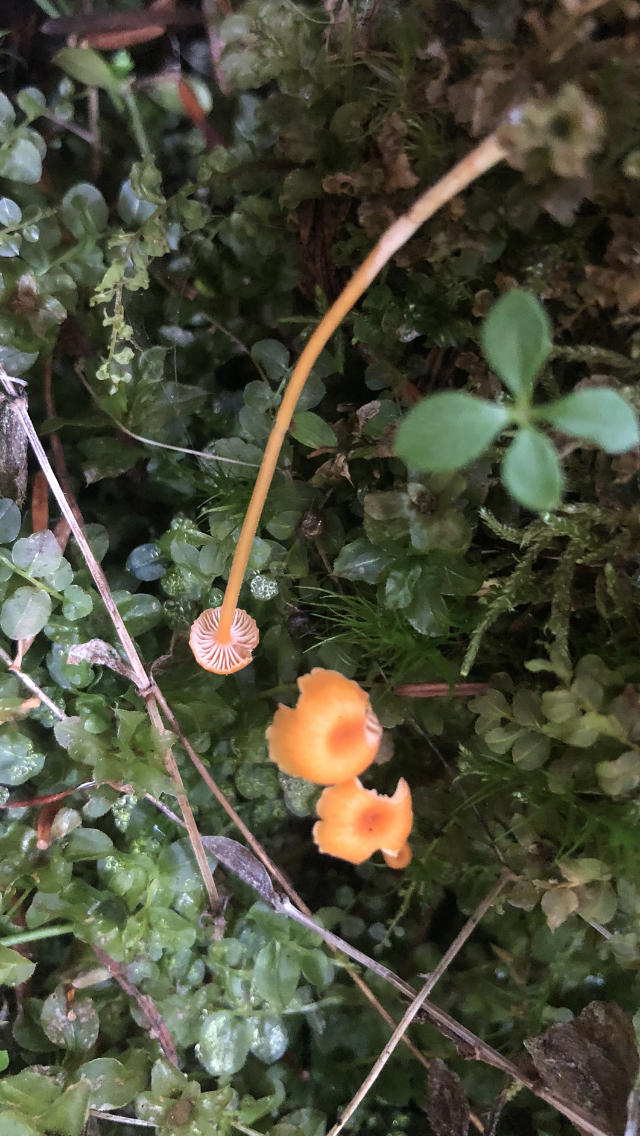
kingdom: Fungi
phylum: Basidiomycota
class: Agaricomycetes
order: Hymenochaetales
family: Rickenellaceae
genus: Rickenella
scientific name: Rickenella fibula
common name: orange mosnavlehat
